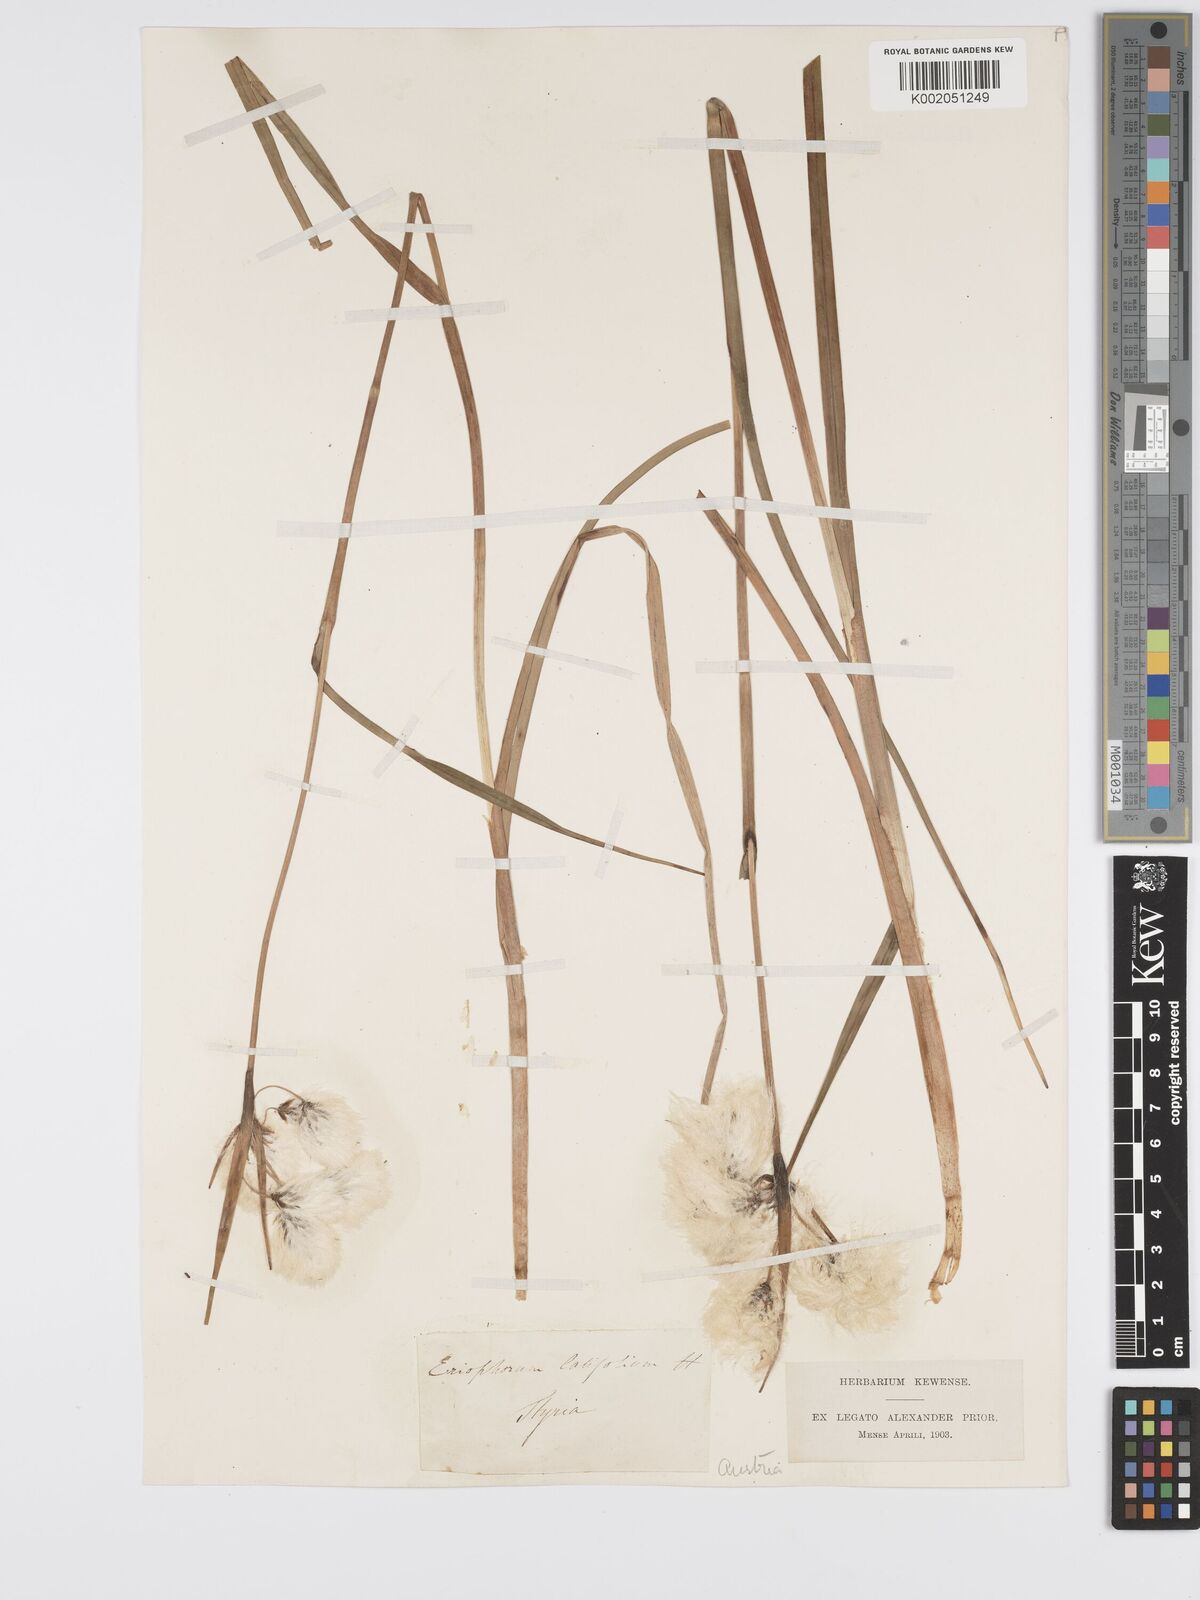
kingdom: Plantae
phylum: Tracheophyta
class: Liliopsida
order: Poales
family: Cyperaceae
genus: Eriophorum
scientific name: Eriophorum latifolium
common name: Broad-leaved cottongrass
